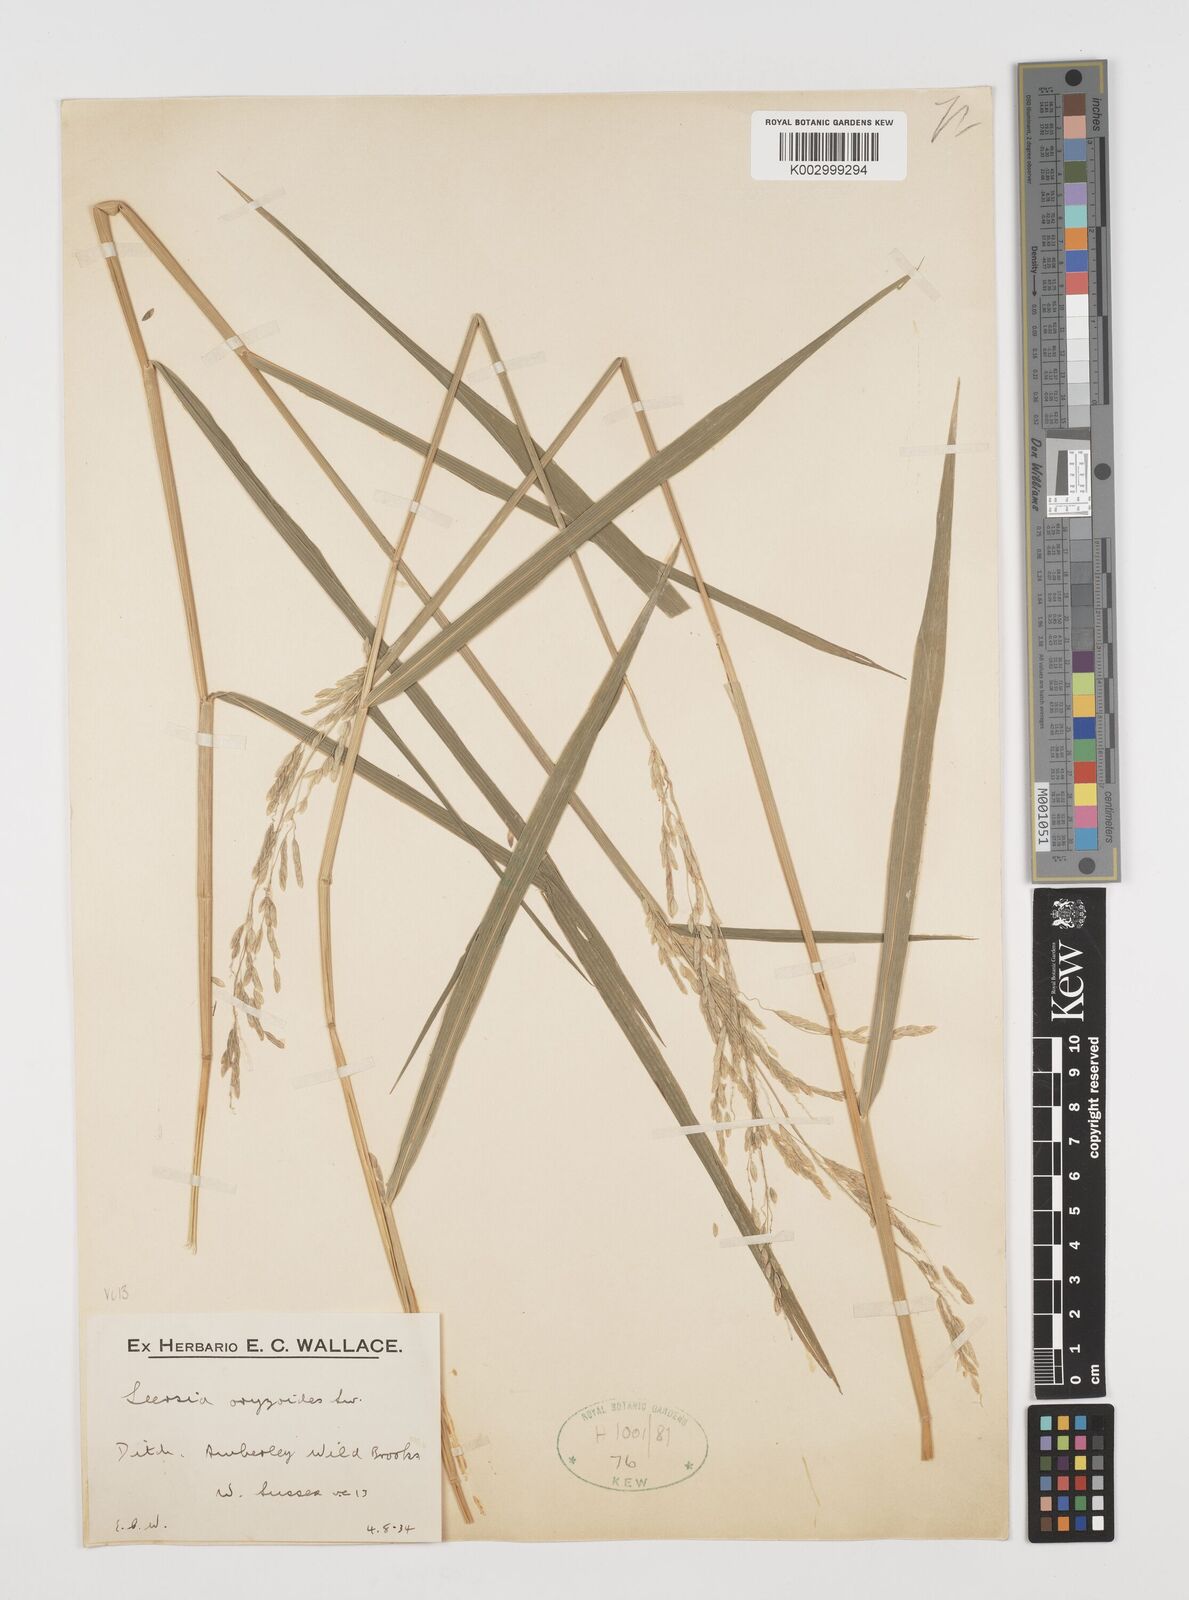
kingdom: Plantae
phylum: Tracheophyta
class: Liliopsida
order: Poales
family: Poaceae
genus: Leersia
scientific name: Leersia oryzoides
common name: Cut-grass
